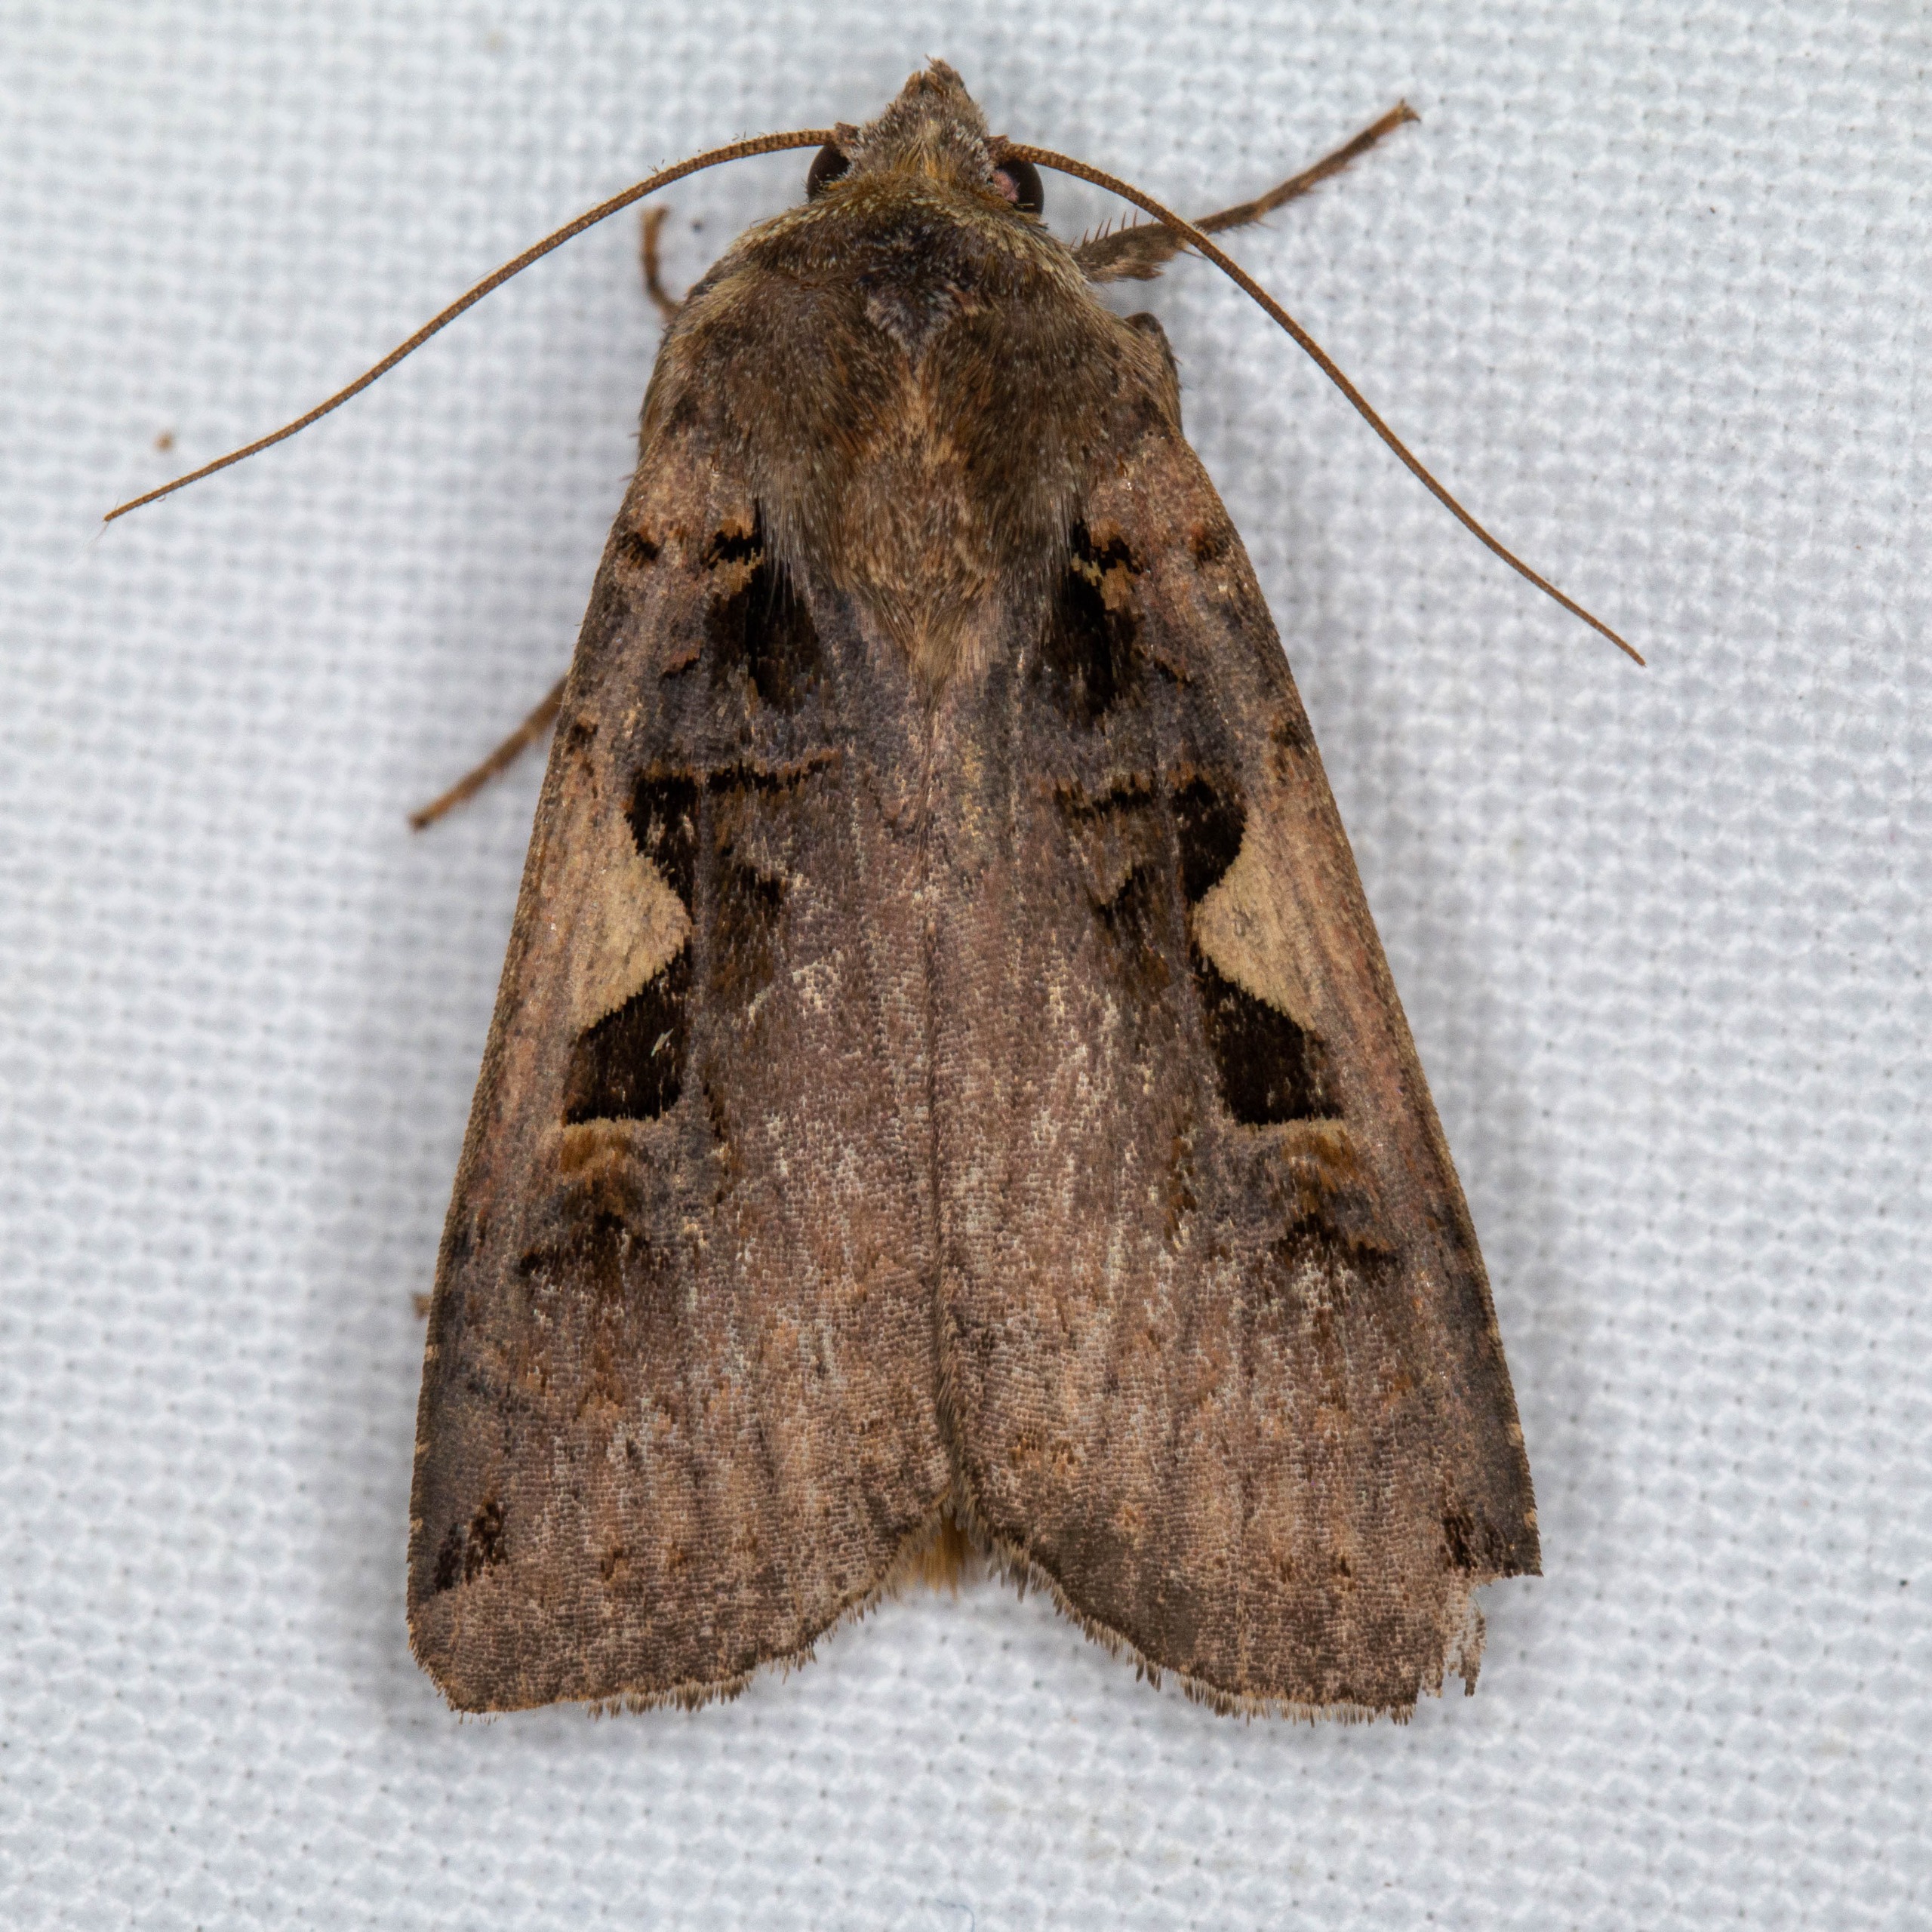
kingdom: Animalia
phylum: Arthropoda
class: Insecta
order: Lepidoptera
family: Noctuidae
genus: Xestia
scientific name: Xestia c-nigrum
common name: Det sorte c
